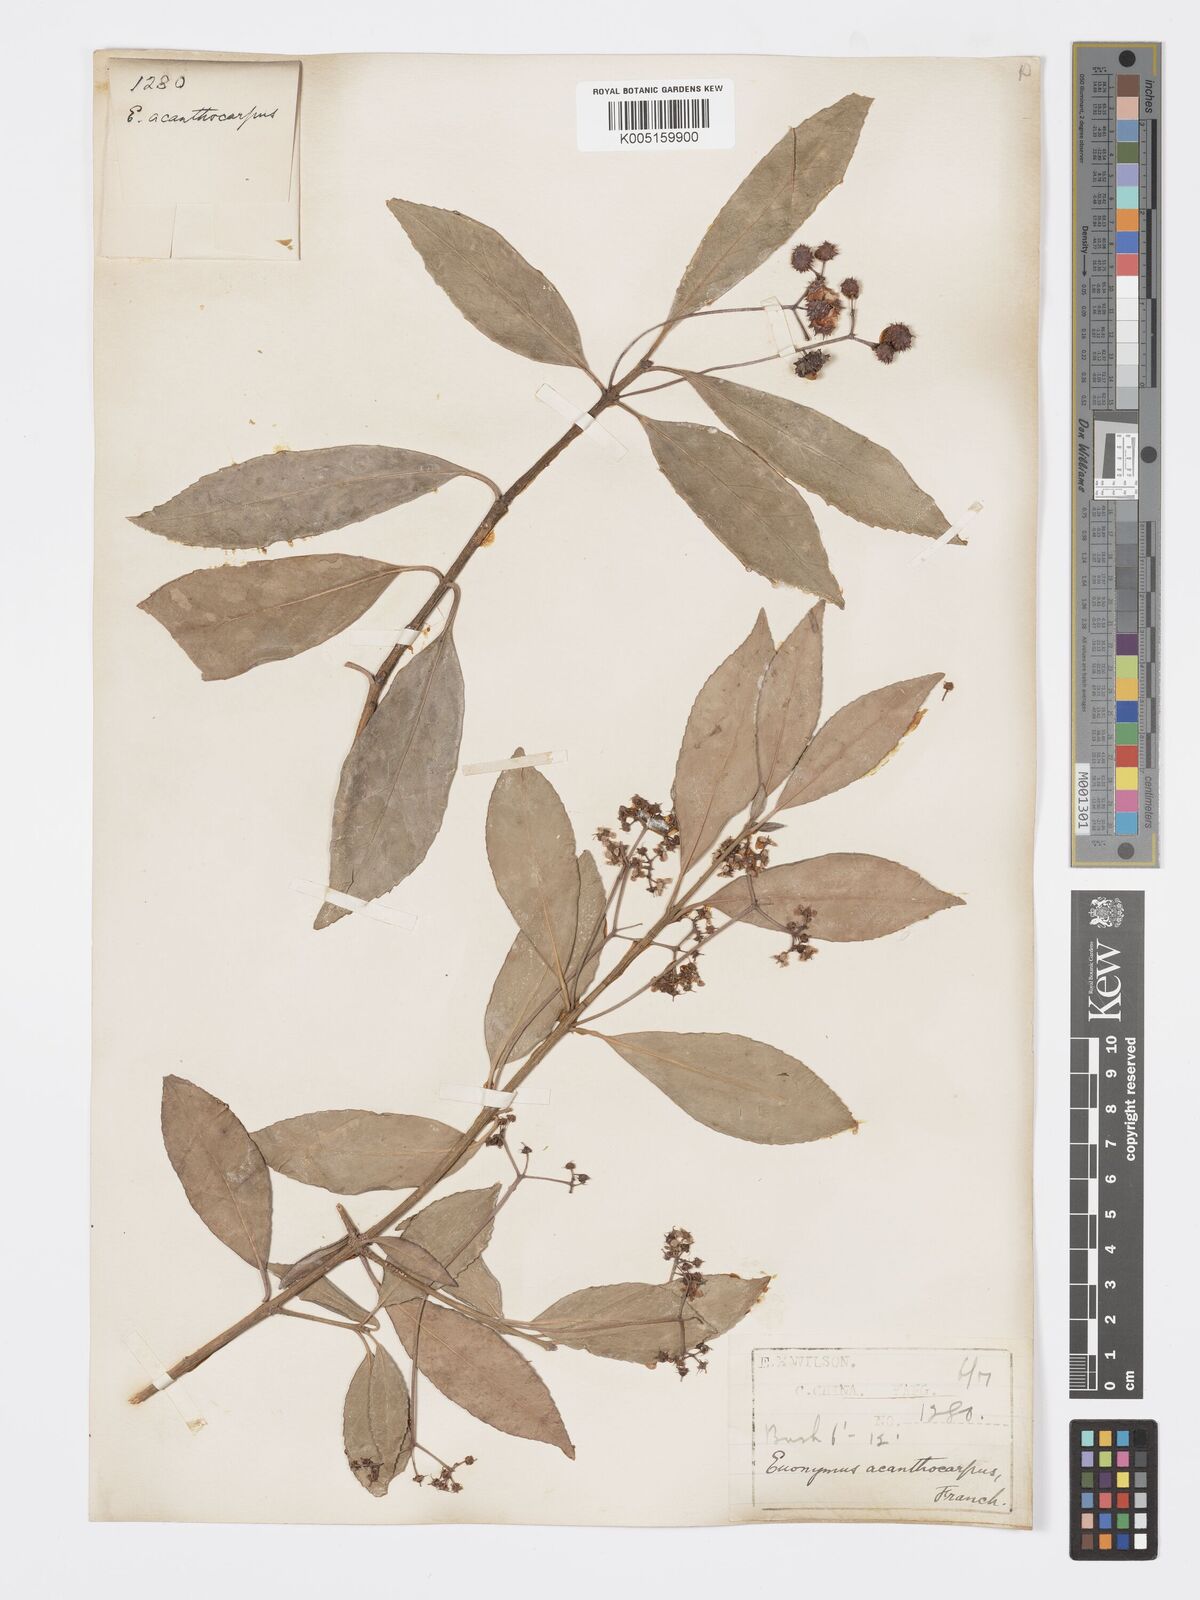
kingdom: Plantae
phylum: Tracheophyta
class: Magnoliopsida
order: Celastrales
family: Celastraceae
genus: Euonymus
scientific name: Euonymus acanthocarpus
